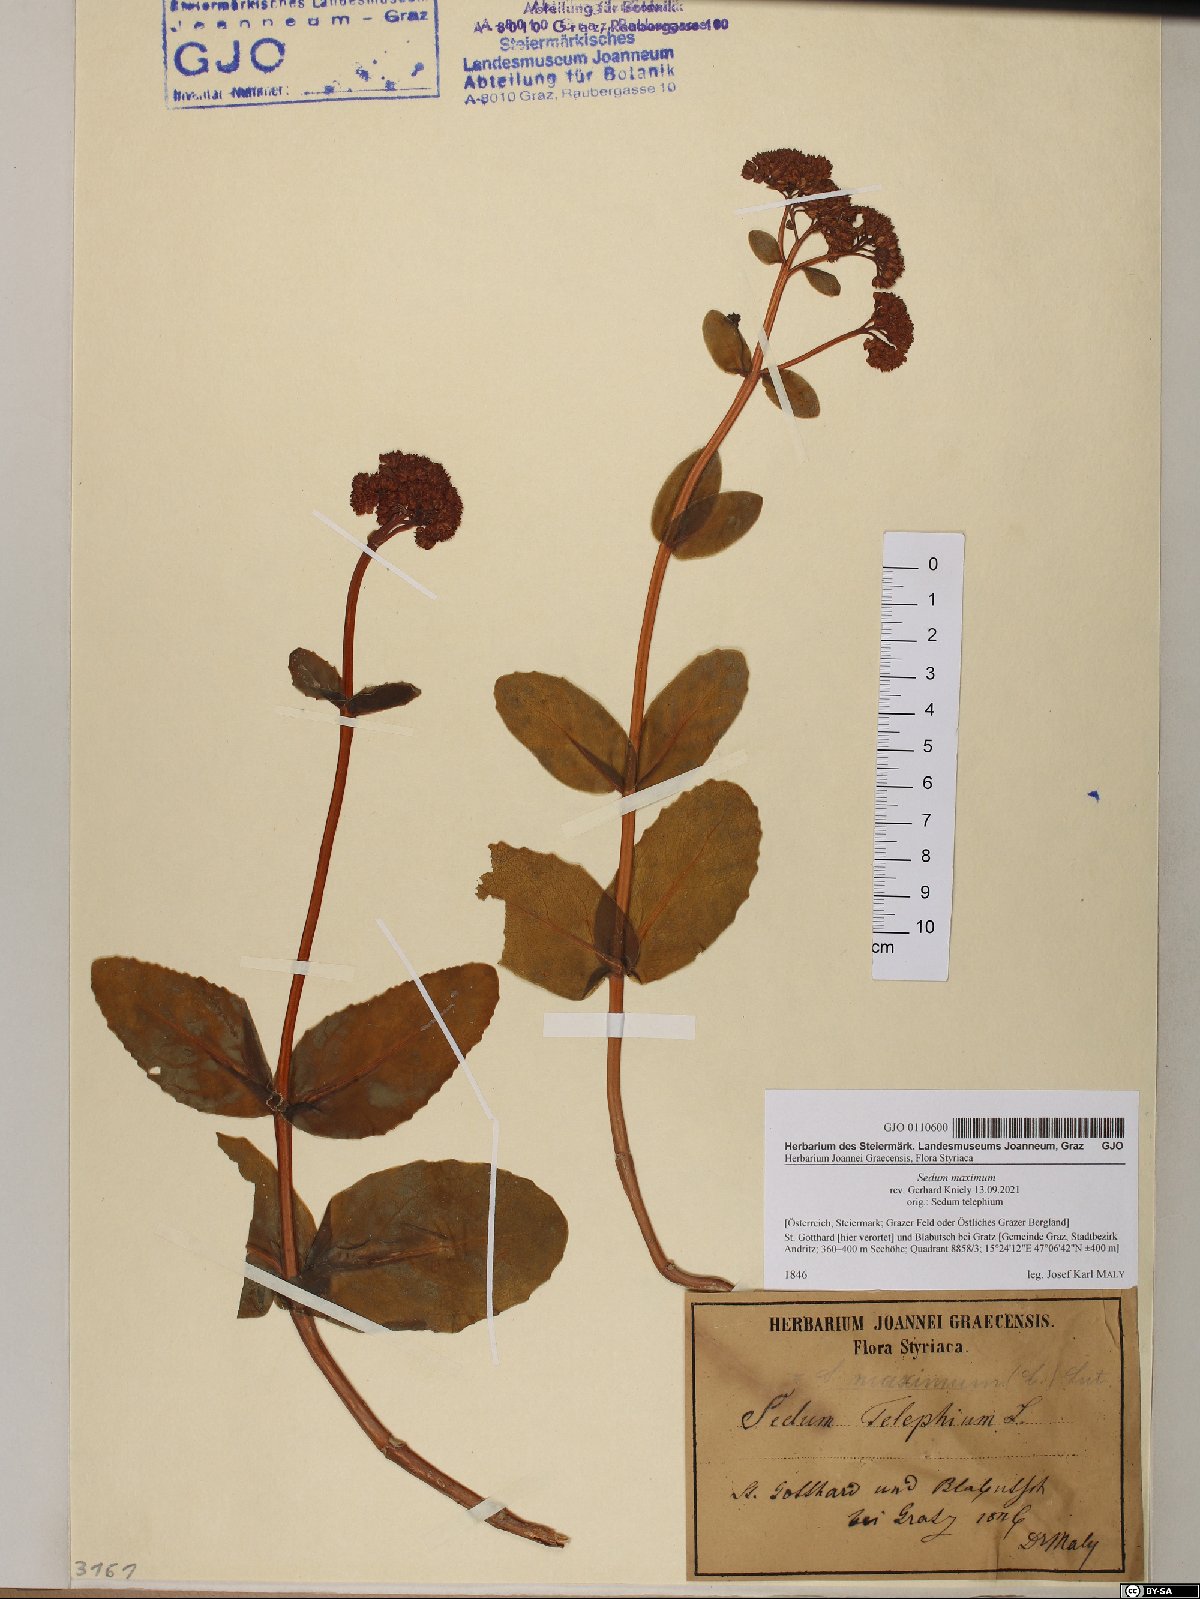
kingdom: Plantae
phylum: Tracheophyta
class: Magnoliopsida
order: Saxifragales
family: Crassulaceae
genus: Hylotelephium
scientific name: Hylotelephium maximum
